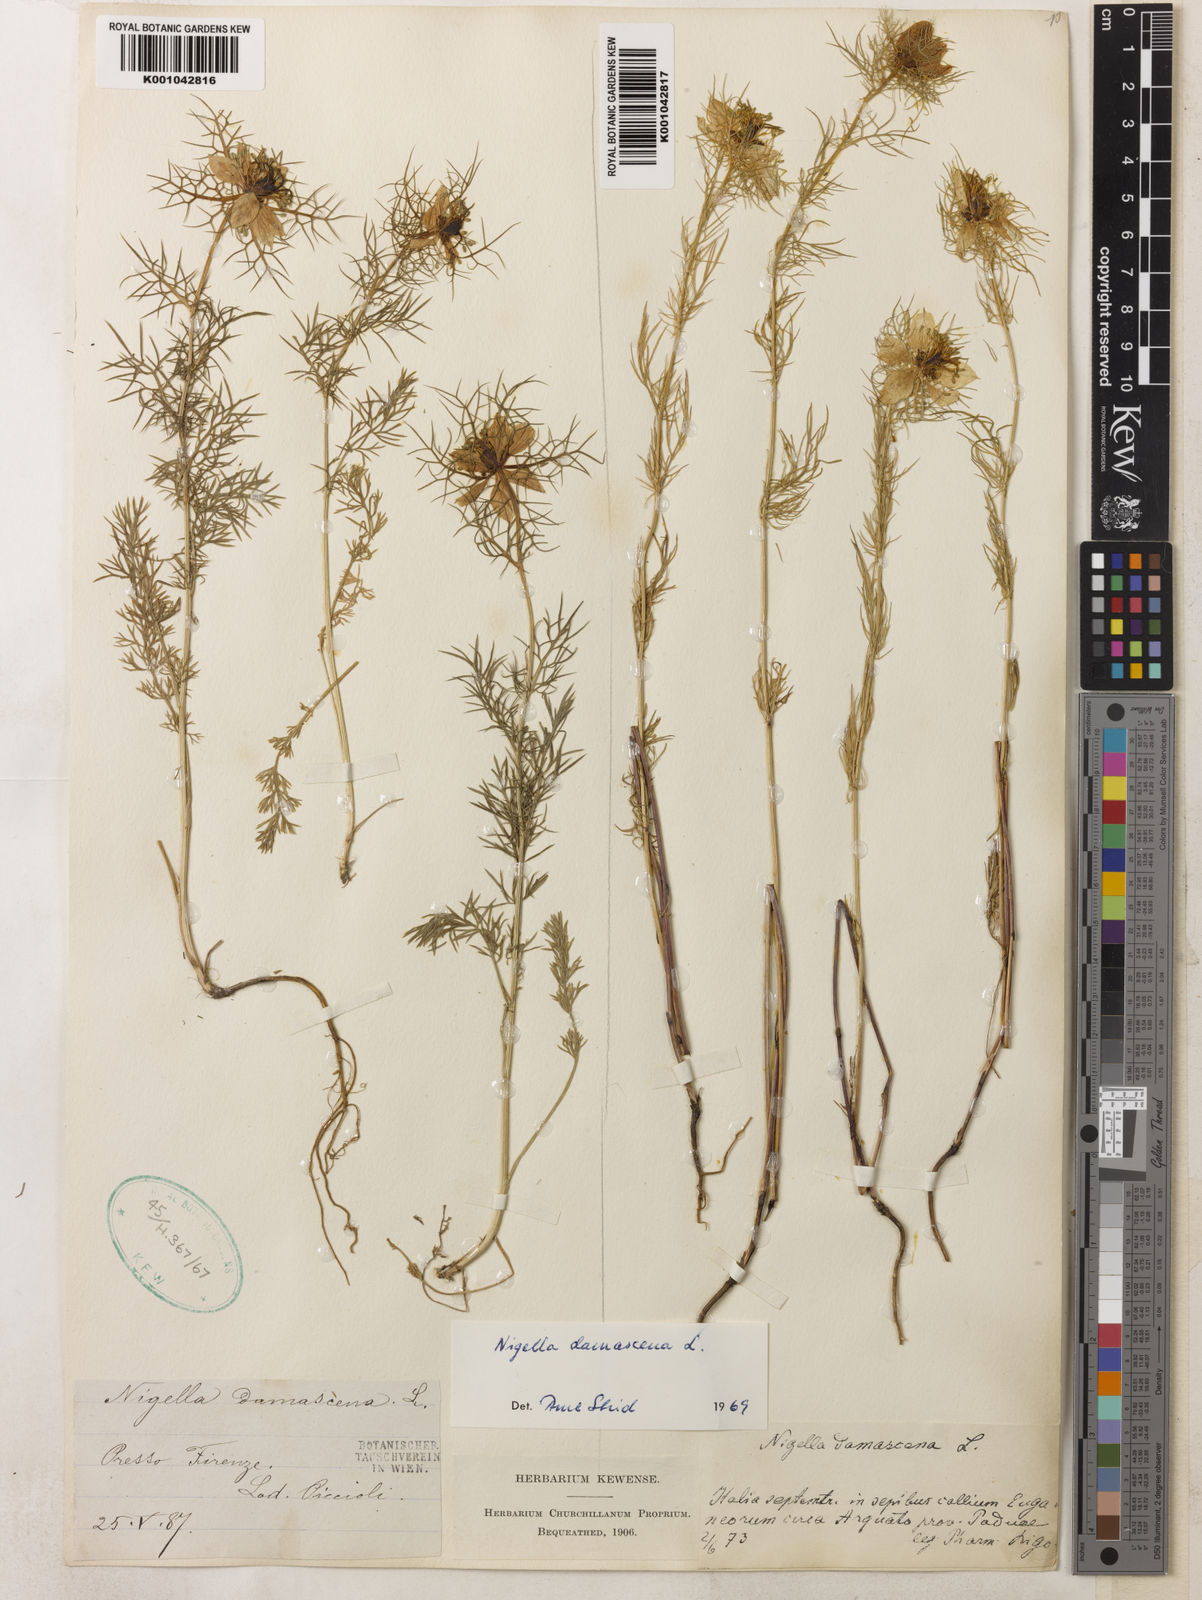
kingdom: Plantae
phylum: Tracheophyta
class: Magnoliopsida
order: Ranunculales
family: Ranunculaceae
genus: Nigella
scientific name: Nigella damascena
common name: Love-in-a-mist
